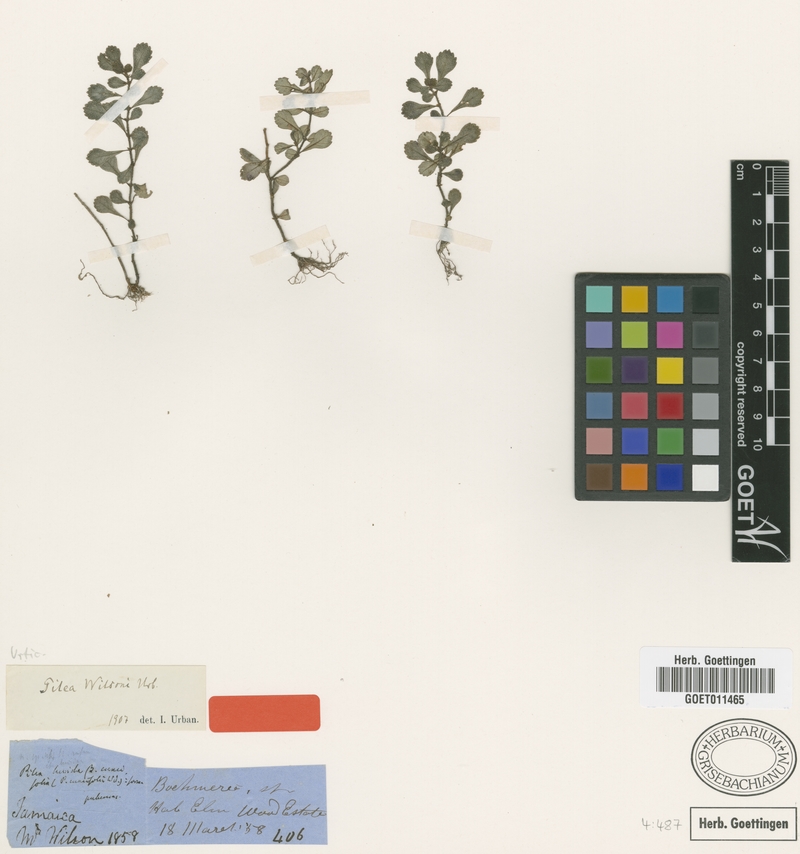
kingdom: Plantae
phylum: Tracheophyta
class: Magnoliopsida
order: Rosales
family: Urticaceae
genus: Pilea
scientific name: Pilea wilsonii
